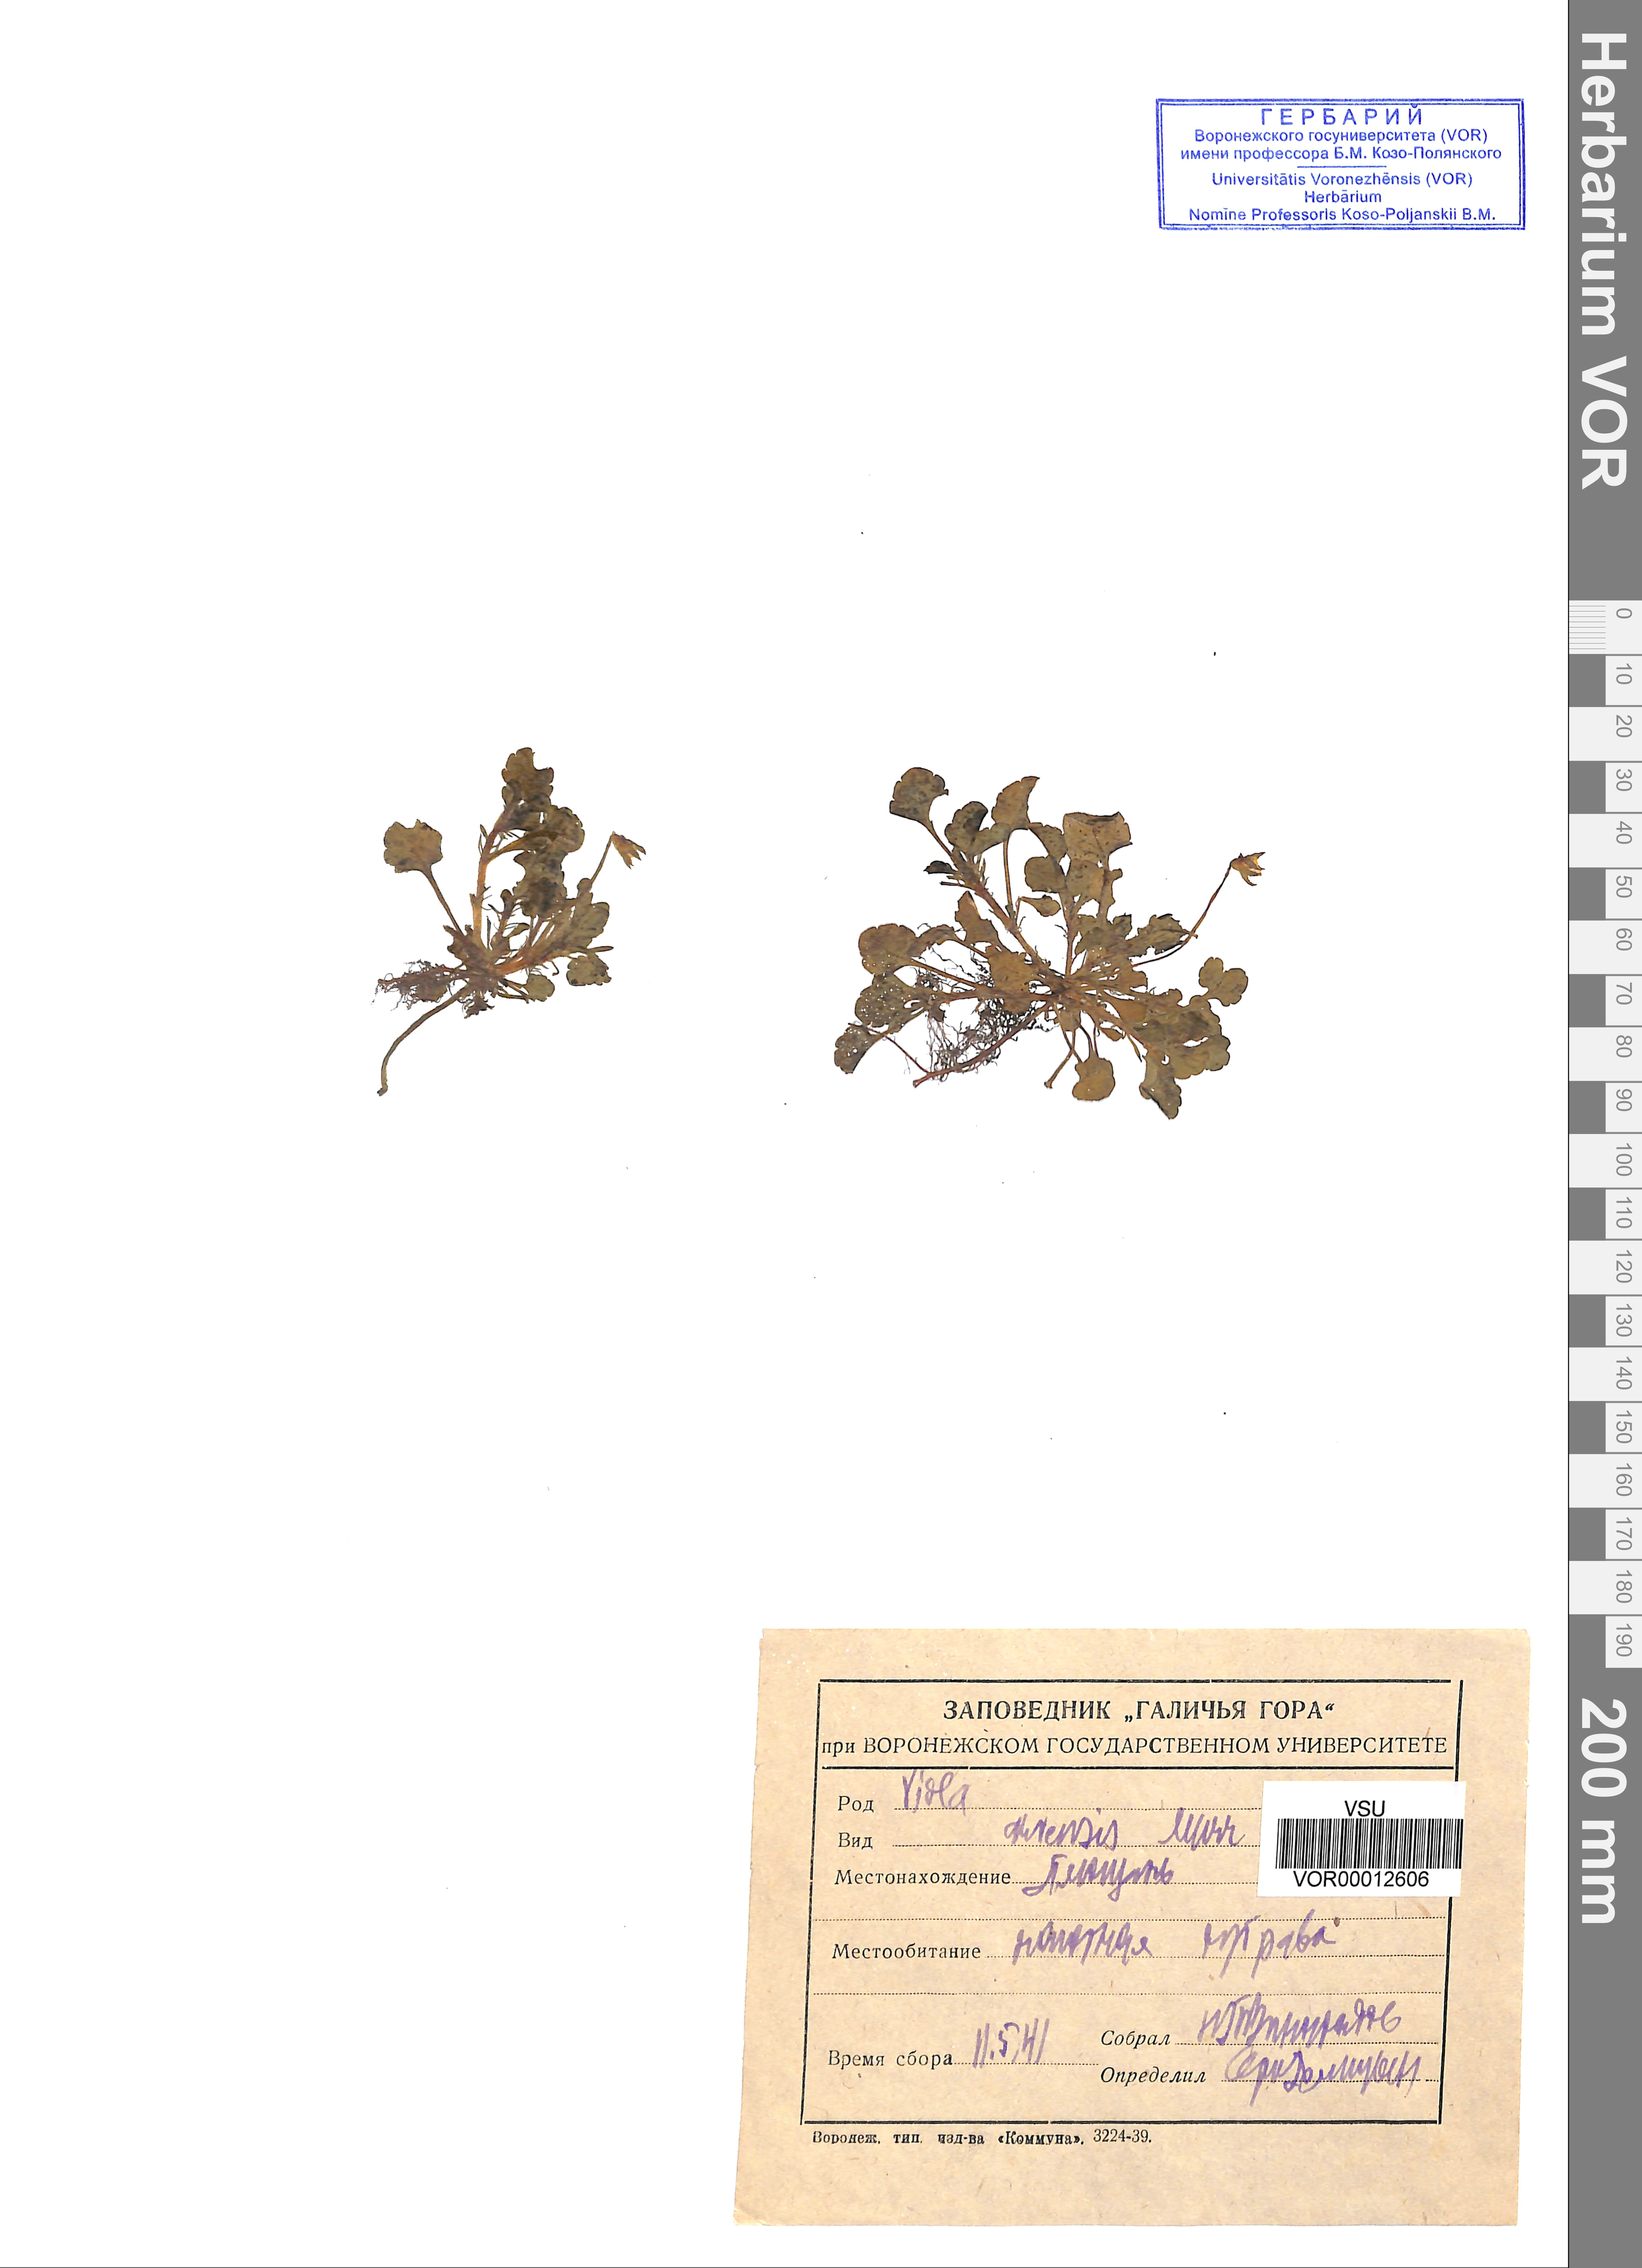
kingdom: Plantae
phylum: Tracheophyta
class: Magnoliopsida
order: Malpighiales
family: Violaceae
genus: Viola
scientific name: Viola arvensis
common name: Field pansy
